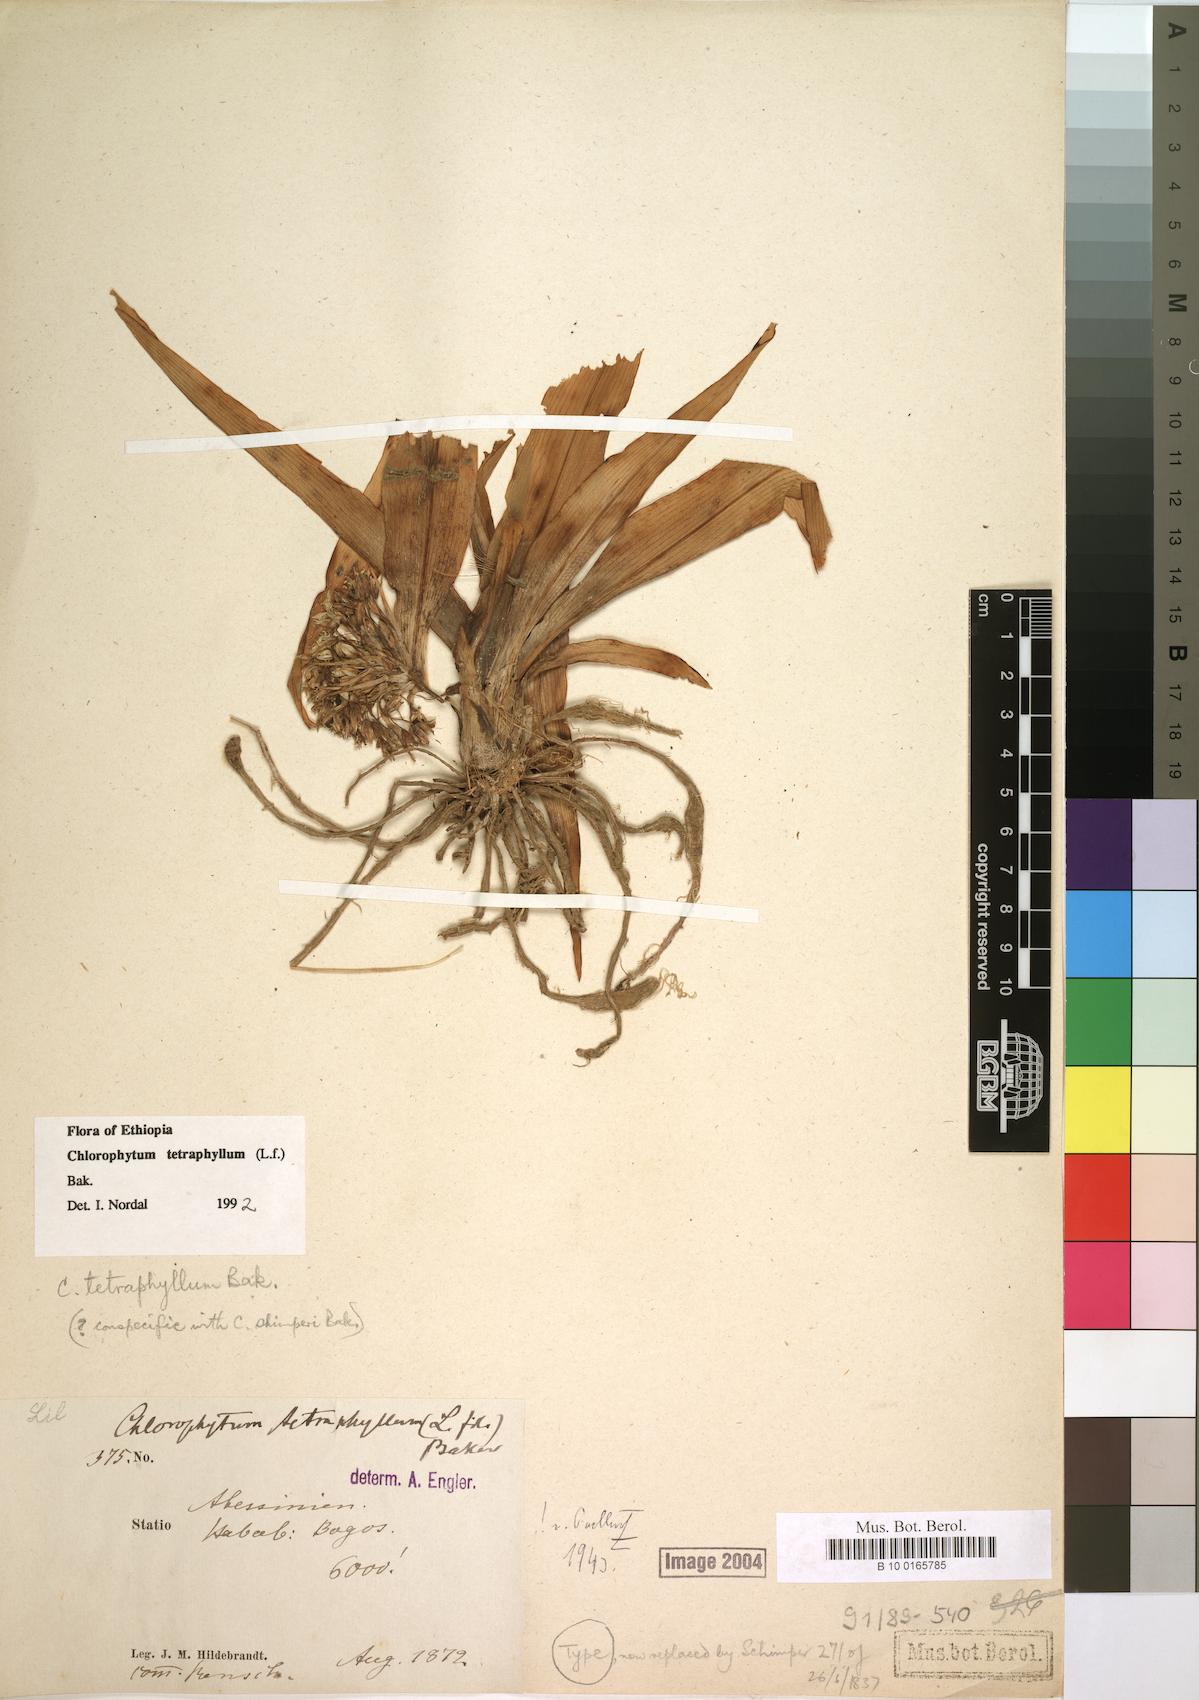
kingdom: Plantae
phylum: Tracheophyta
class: Liliopsida
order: Asparagales
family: Asparagaceae
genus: Chlorophytum
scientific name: Chlorophytum tetraphyllum
